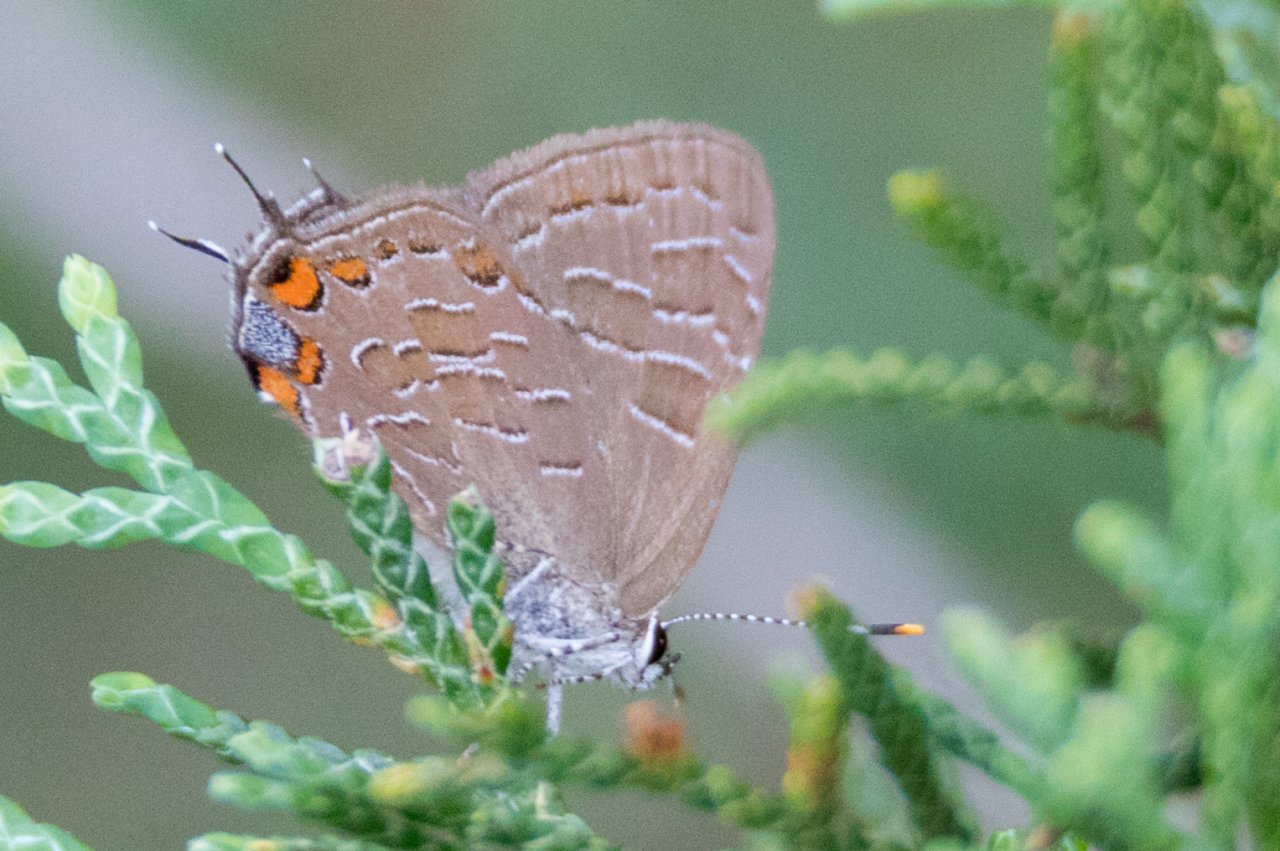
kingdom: Animalia
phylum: Arthropoda
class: Insecta
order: Lepidoptera
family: Lycaenidae
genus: Satyrium
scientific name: Satyrium liparops
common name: Striped Hairstreak
